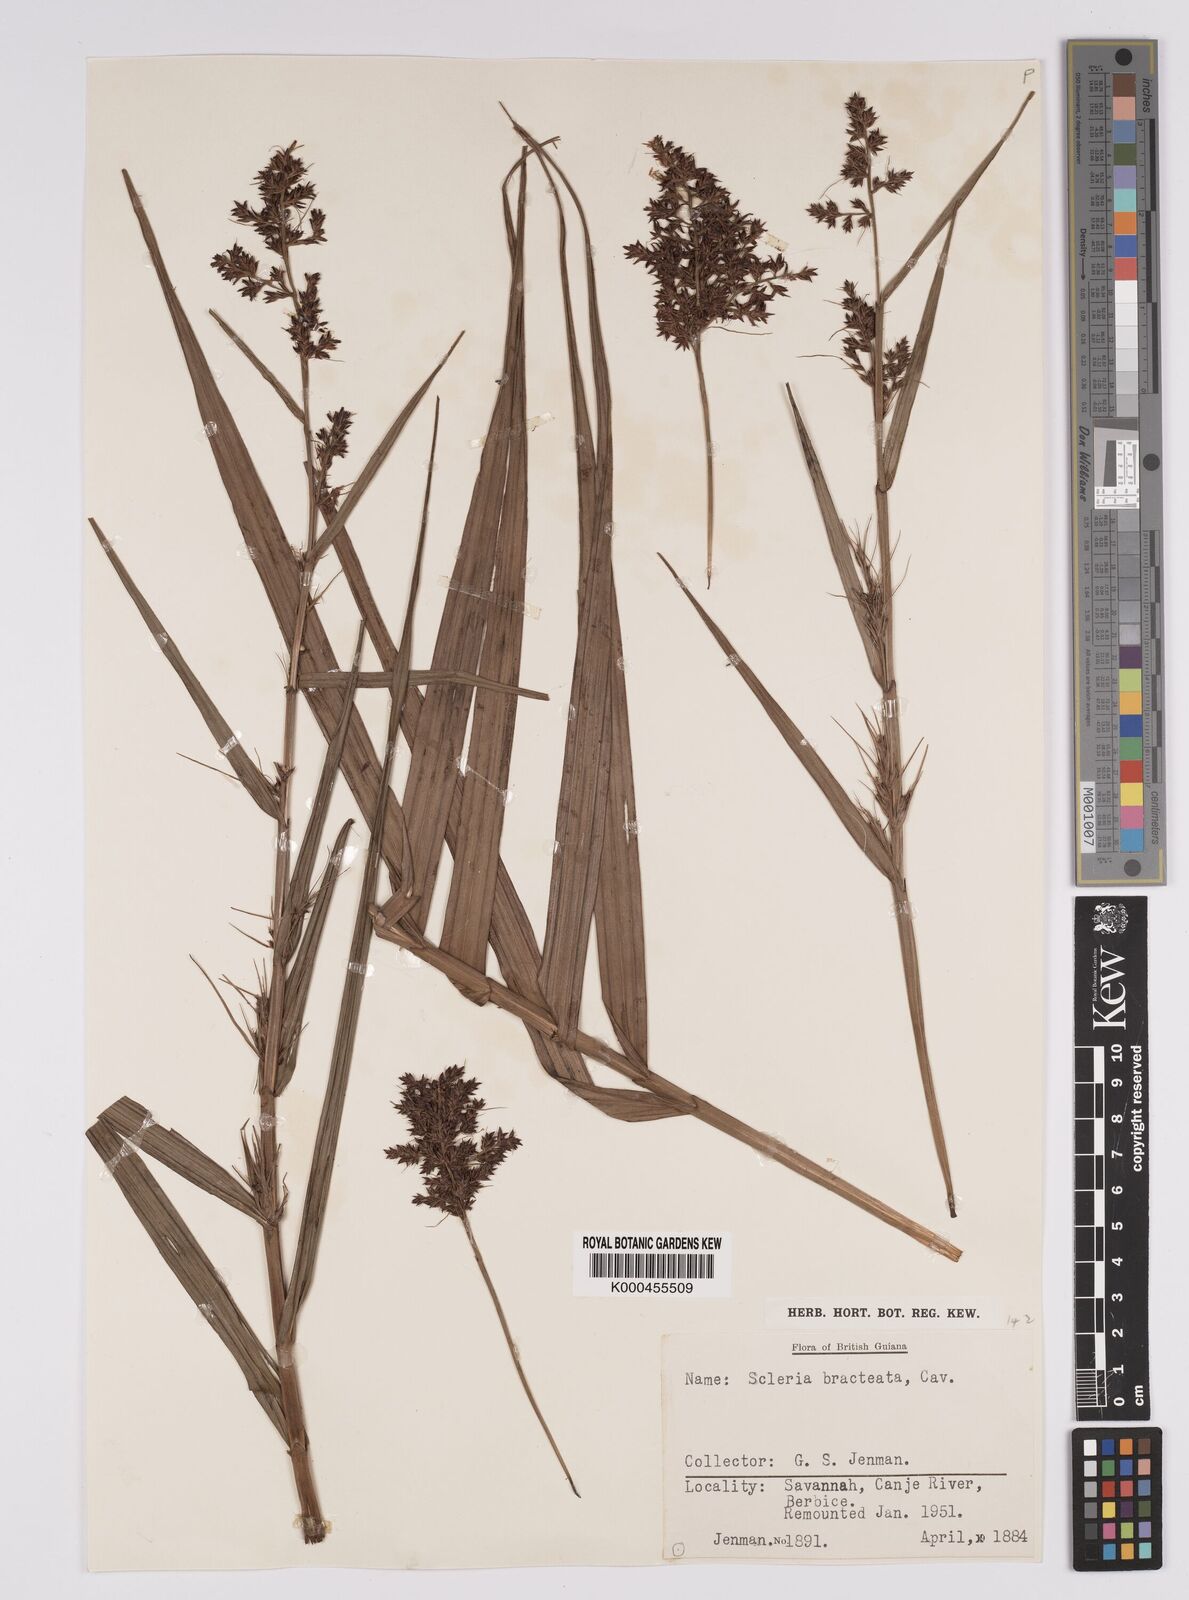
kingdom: Plantae
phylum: Tracheophyta
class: Liliopsida
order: Poales
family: Cyperaceae
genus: Scleria
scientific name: Scleria bracteata
